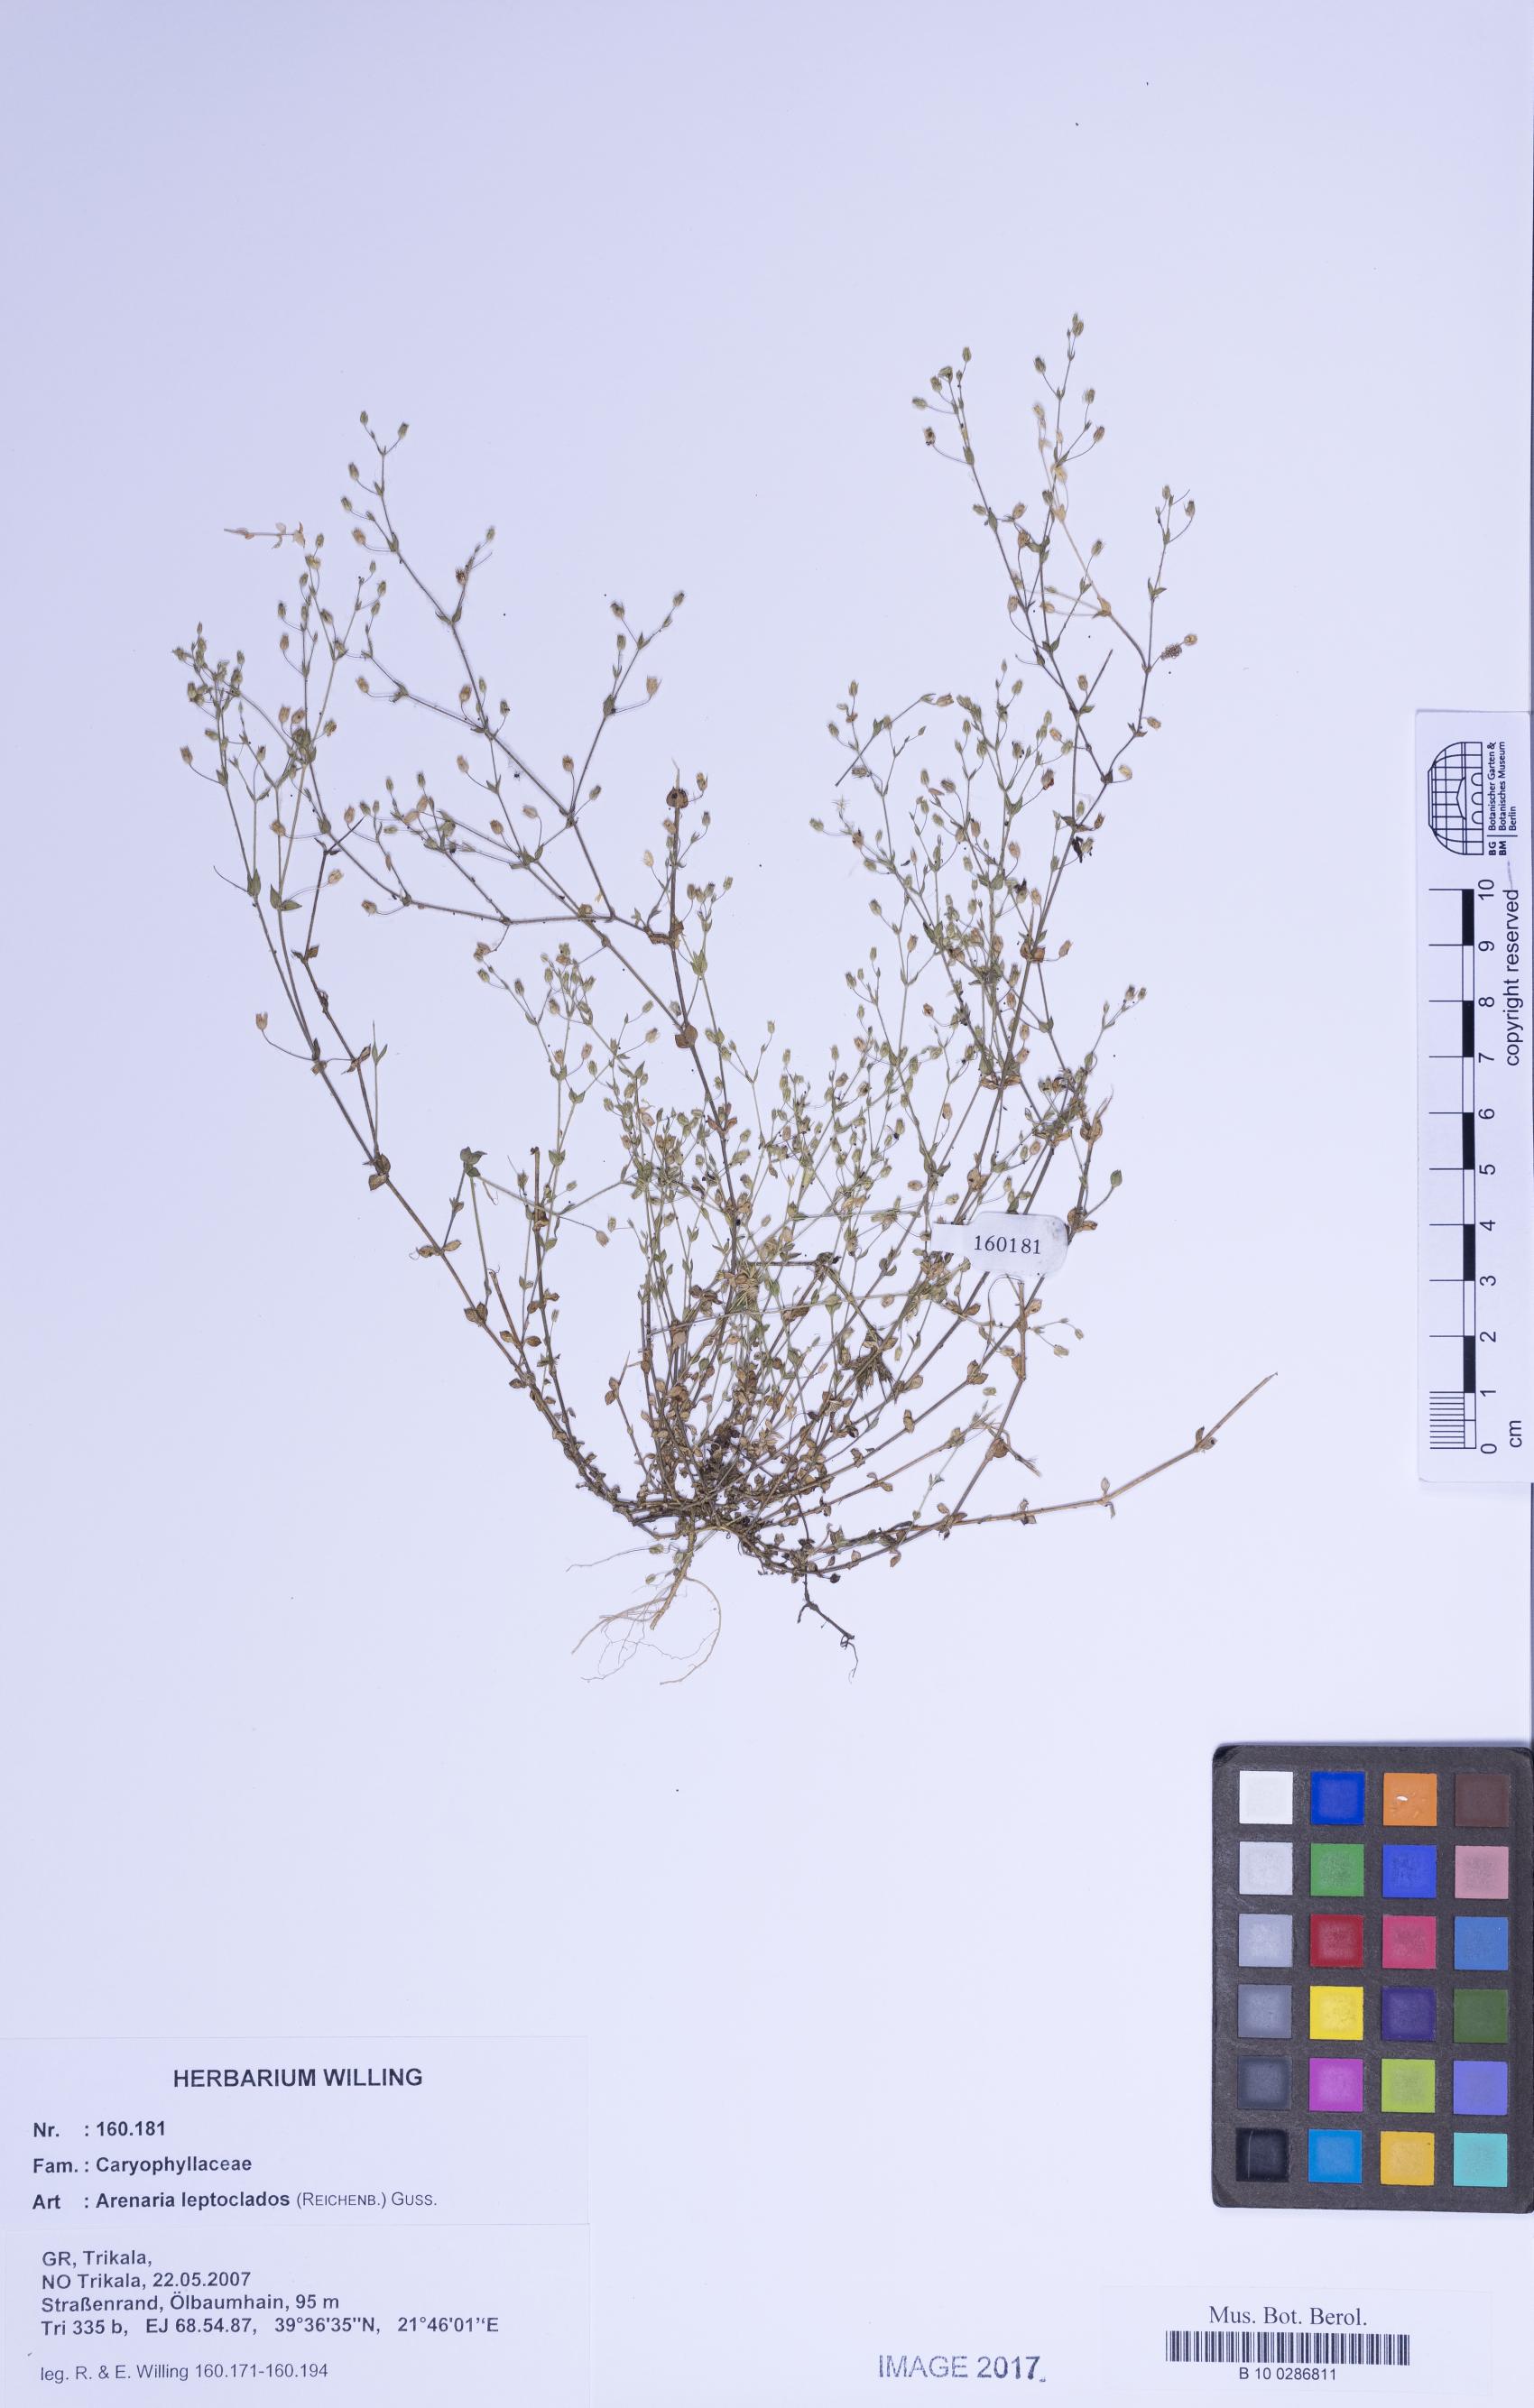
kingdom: Plantae
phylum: Tracheophyta
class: Magnoliopsida
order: Caryophyllales
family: Caryophyllaceae
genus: Arenaria
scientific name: Arenaria leptoclados
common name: Thyme-leaved sandwort
